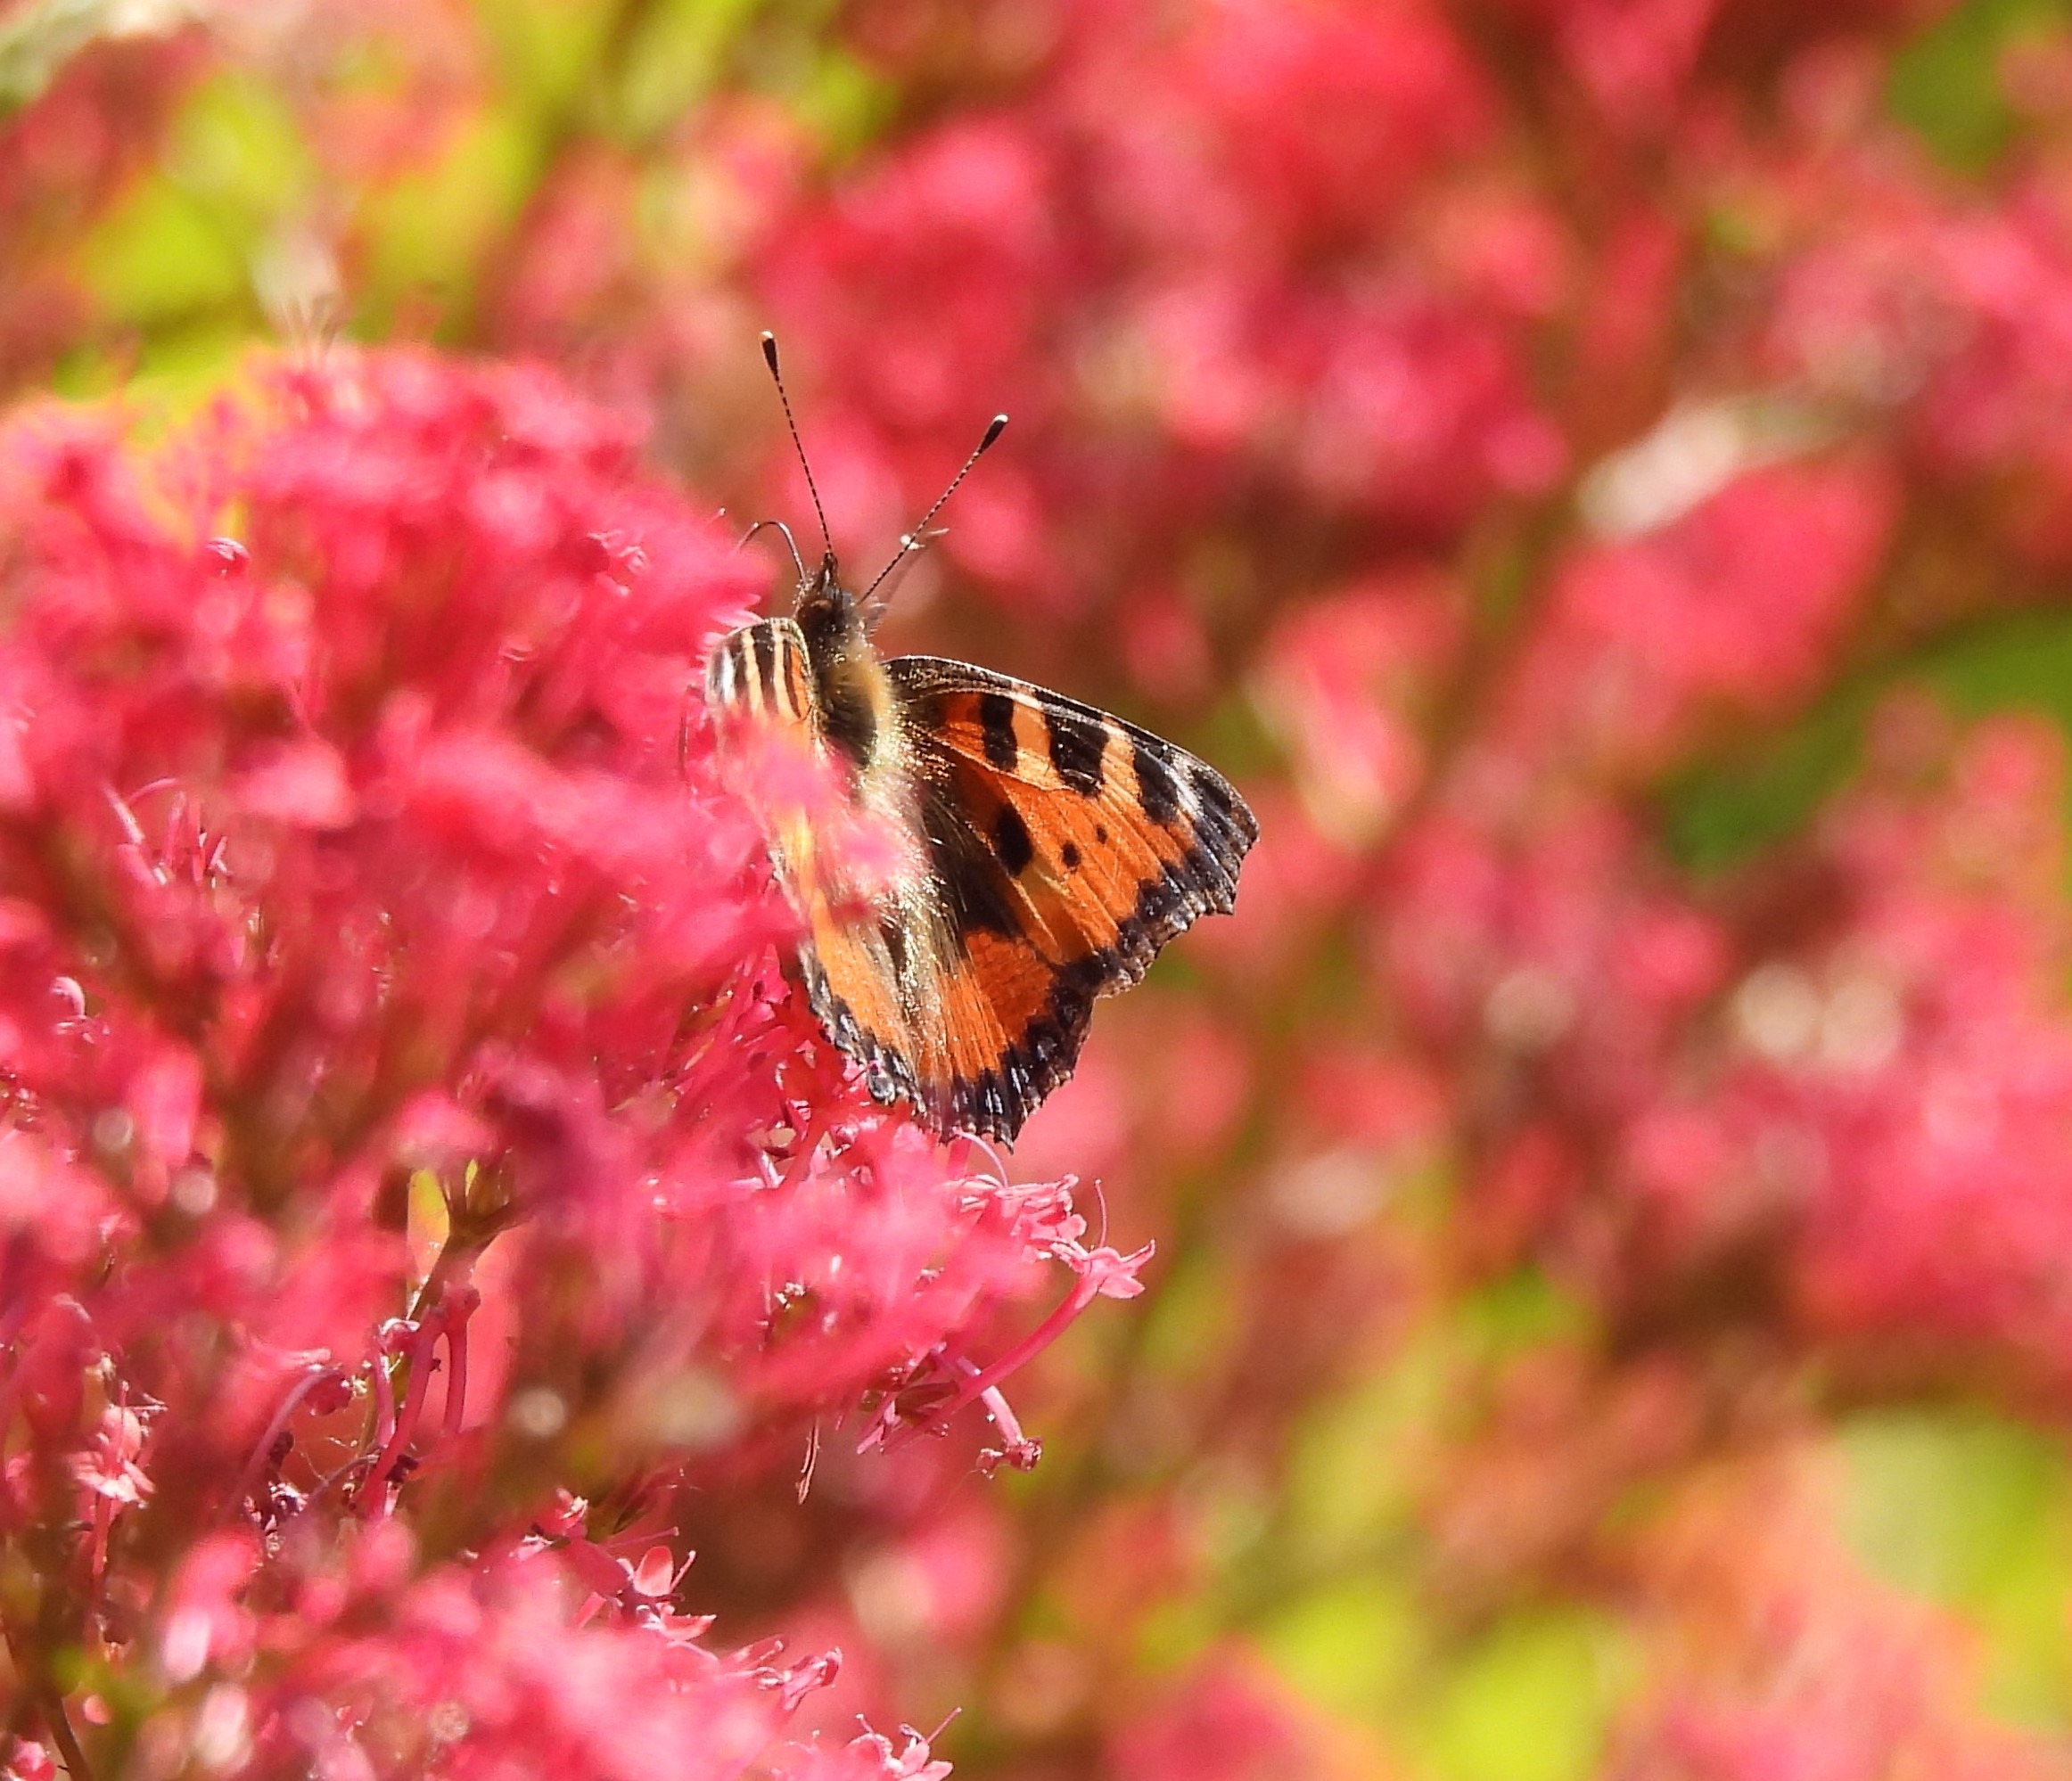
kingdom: Animalia
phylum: Arthropoda
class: Insecta
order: Lepidoptera
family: Nymphalidae
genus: Aglais
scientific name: Aglais urticae
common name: Nældens takvinge
